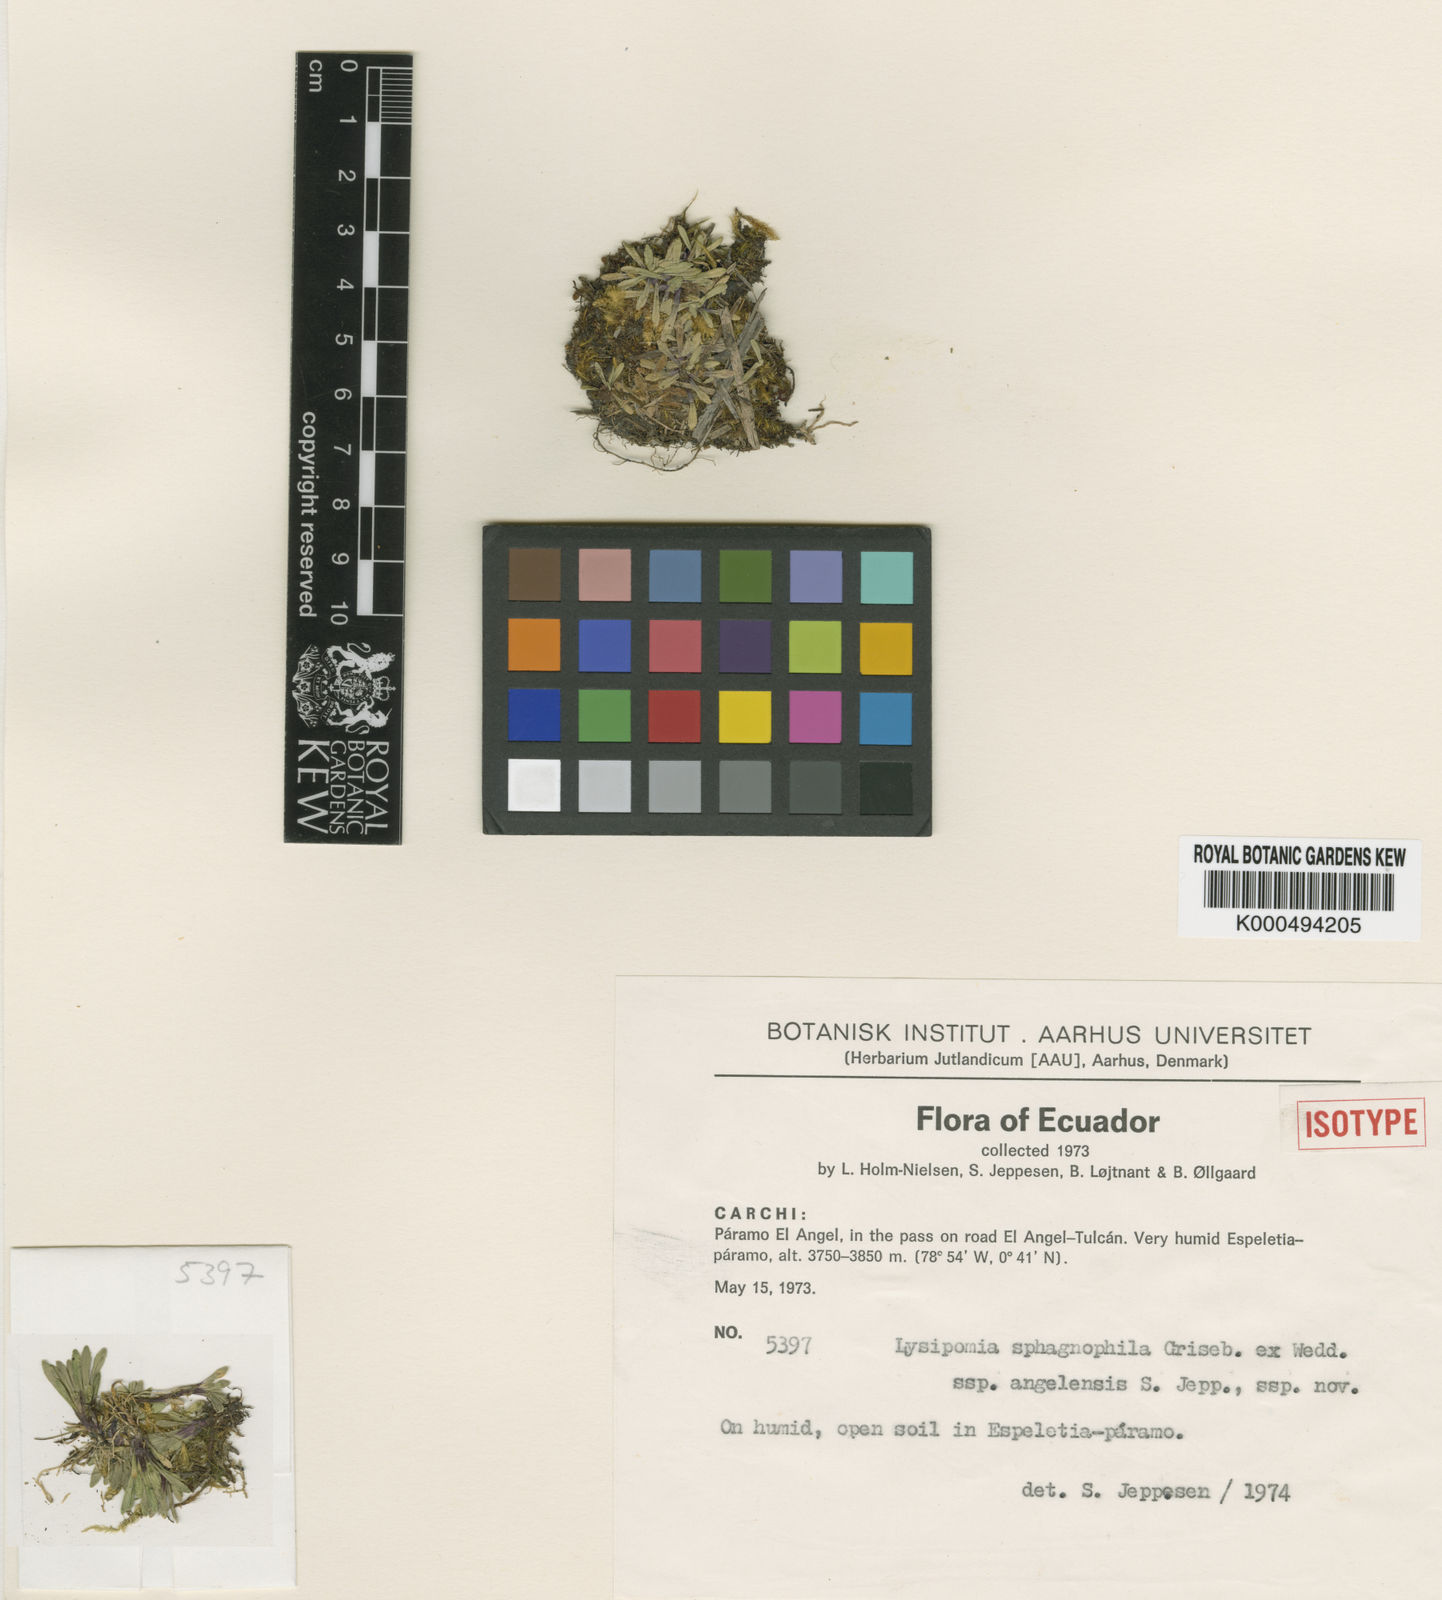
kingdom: Plantae
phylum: Tracheophyta
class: Magnoliopsida
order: Asterales
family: Campanulaceae
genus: Lysipomia
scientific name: Lysipomia sphagnophila
